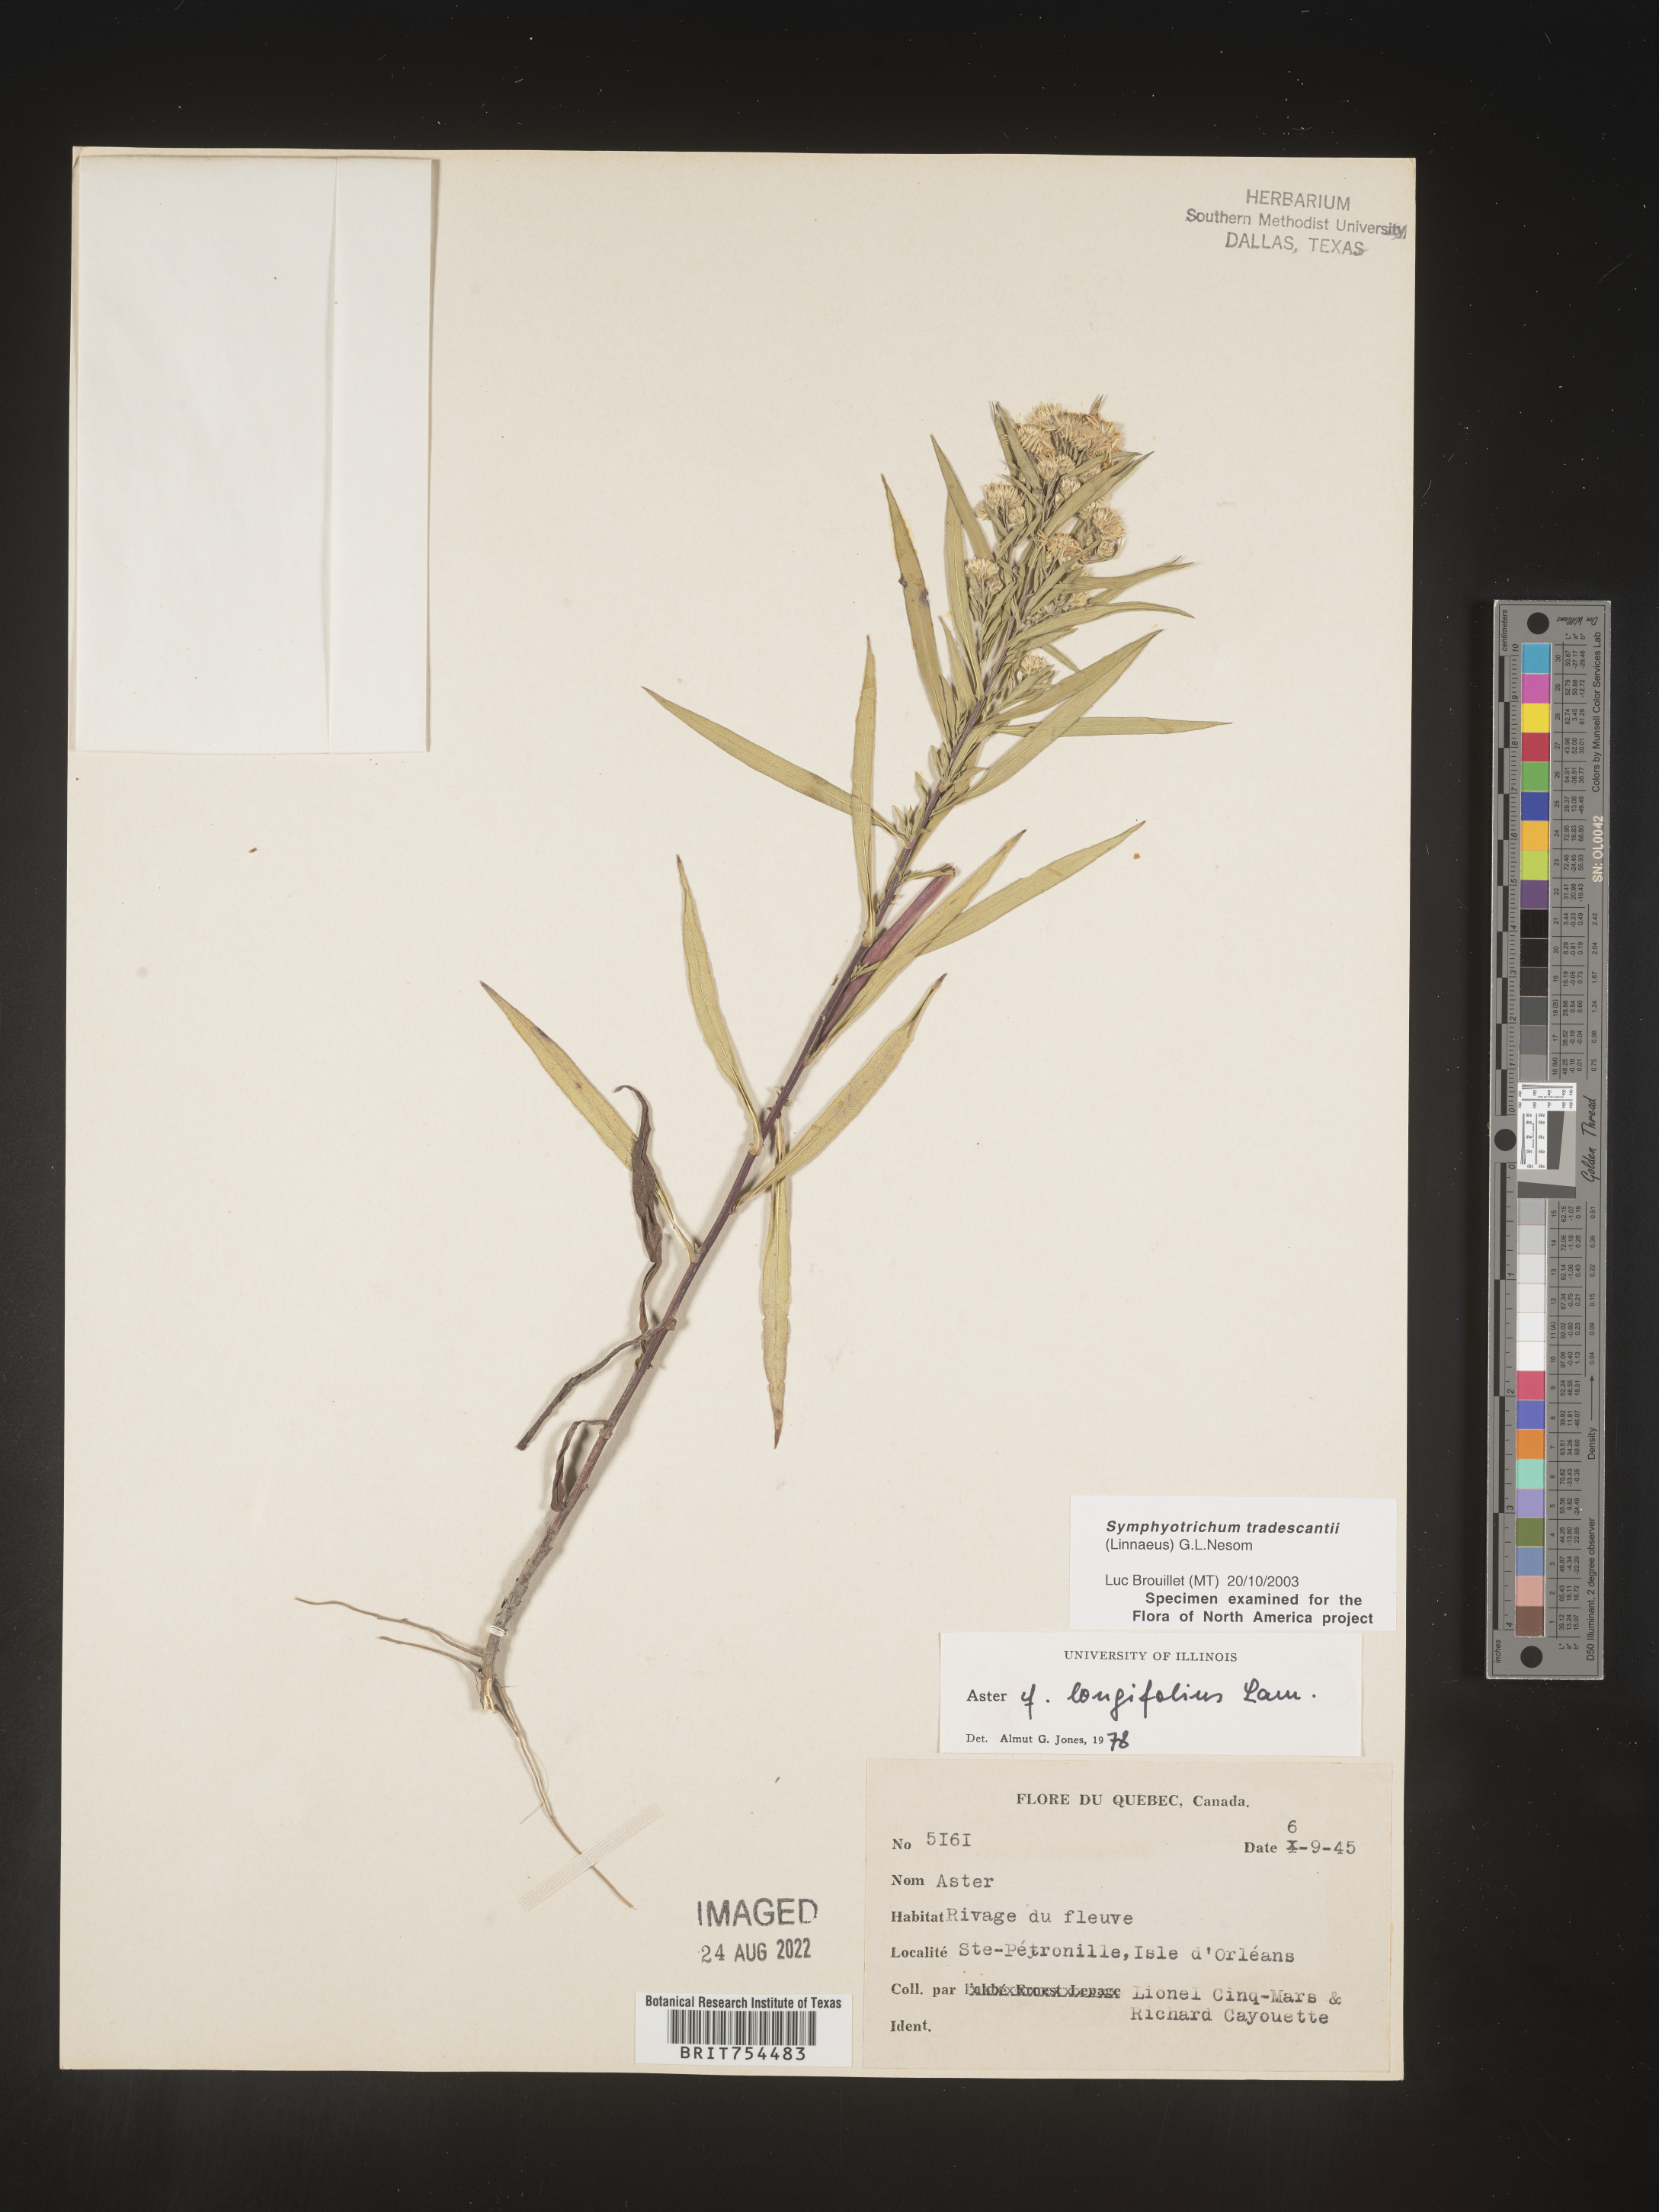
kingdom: Plantae
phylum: Tracheophyta
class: Magnoliopsida
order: Asterales
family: Asteraceae
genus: Symphyotrichum
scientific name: Symphyotrichum tradescantii
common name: Shore aster
